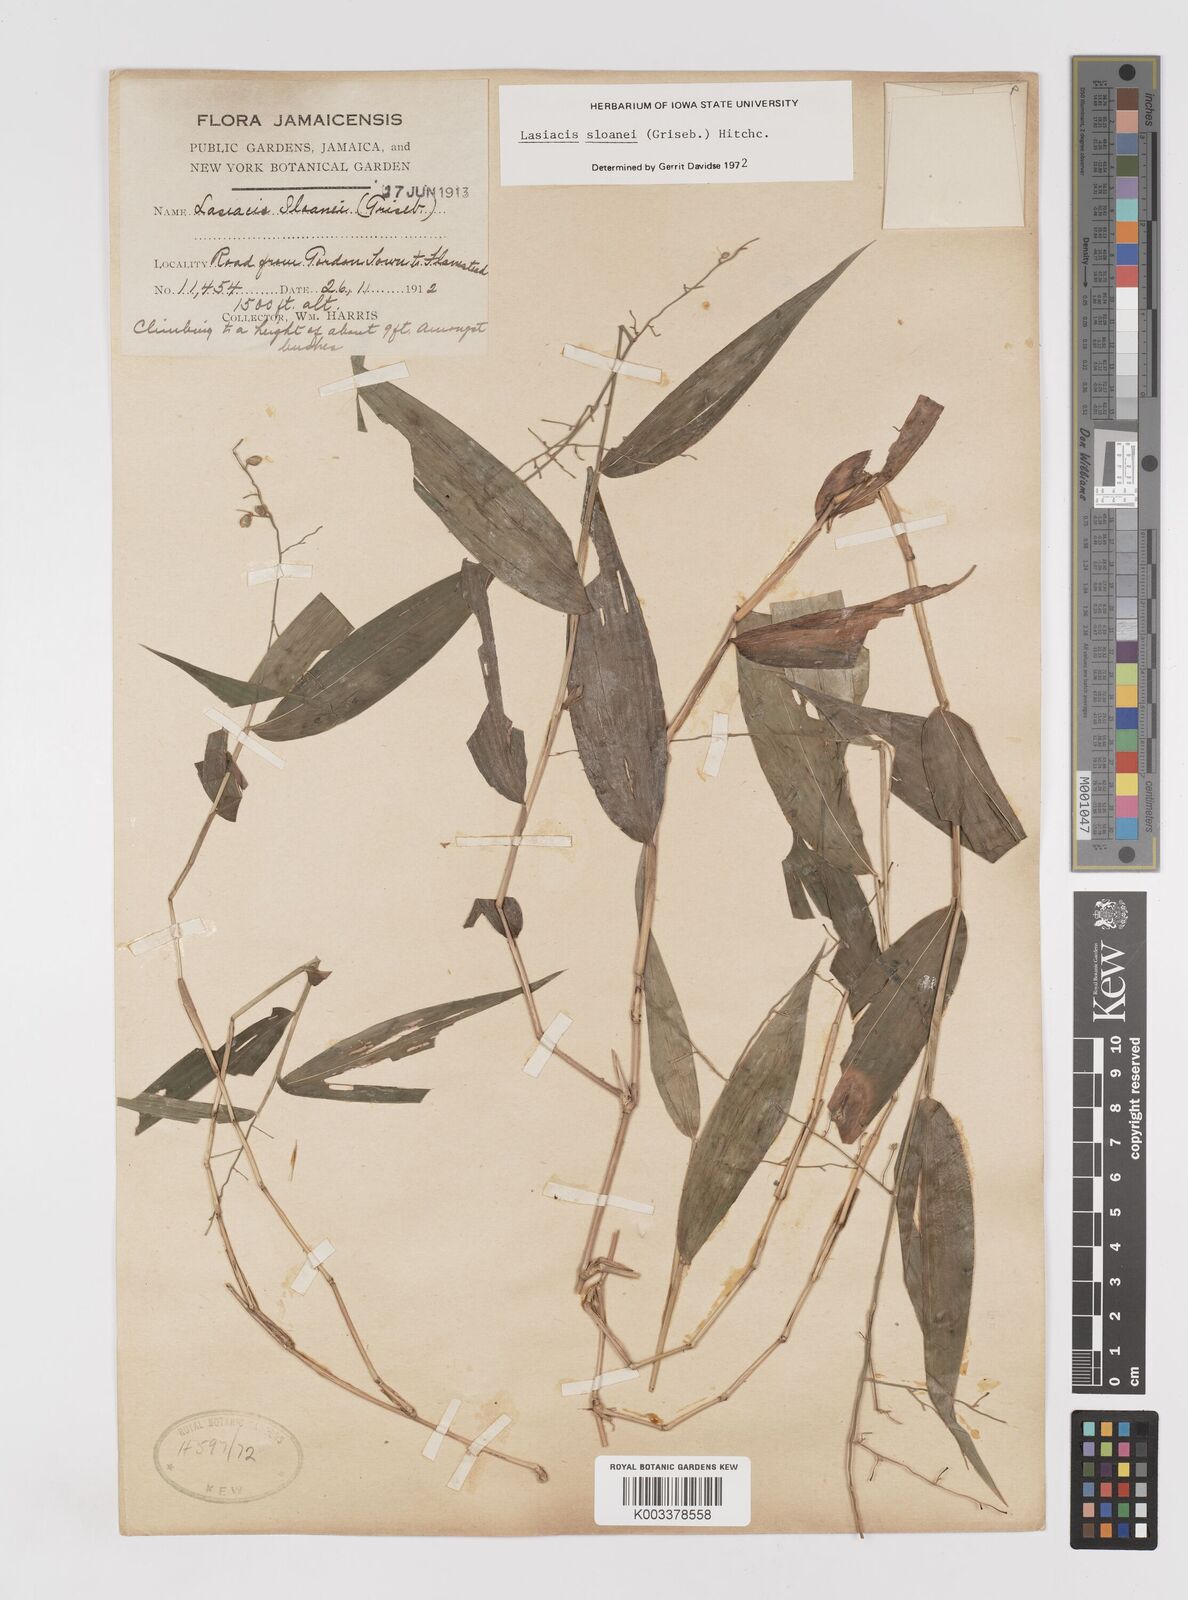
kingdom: Plantae
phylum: Tracheophyta
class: Liliopsida
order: Poales
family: Poaceae
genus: Lasiacis
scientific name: Lasiacis sloanei
